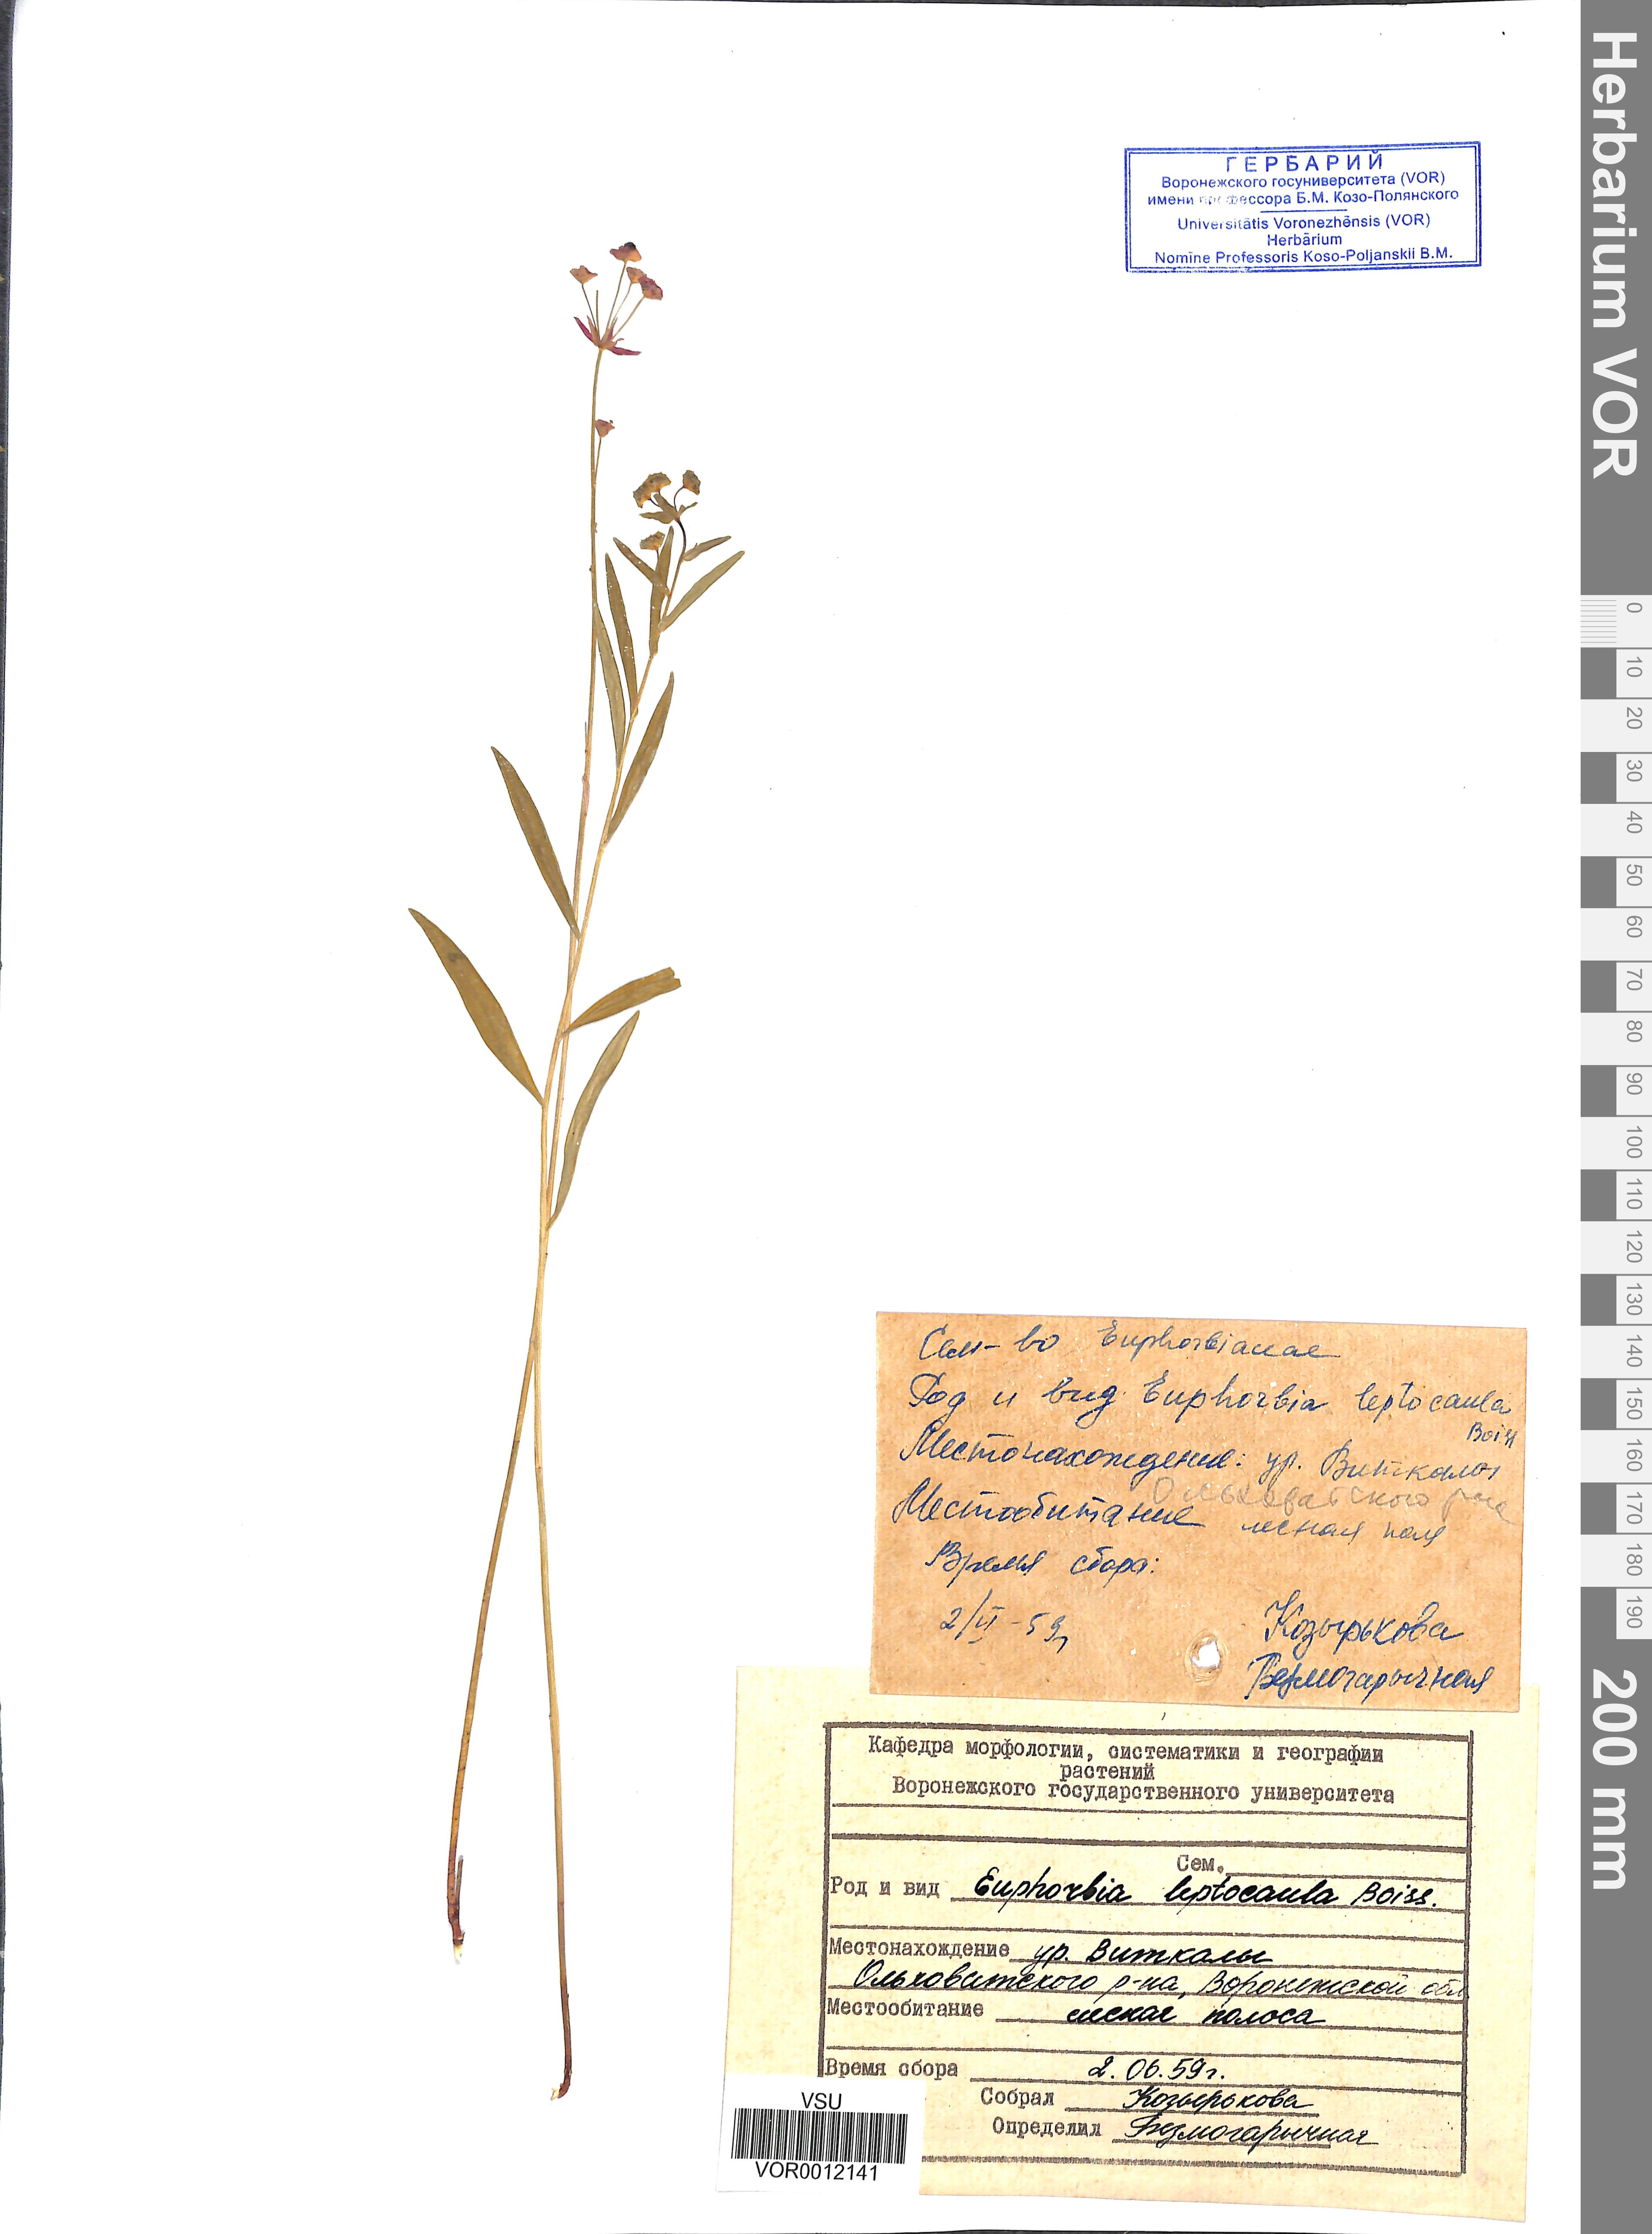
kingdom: Plantae
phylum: Tracheophyta
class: Magnoliopsida
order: Malpighiales
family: Euphorbiaceae
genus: Euphorbia
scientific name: Euphorbia leptocaula
